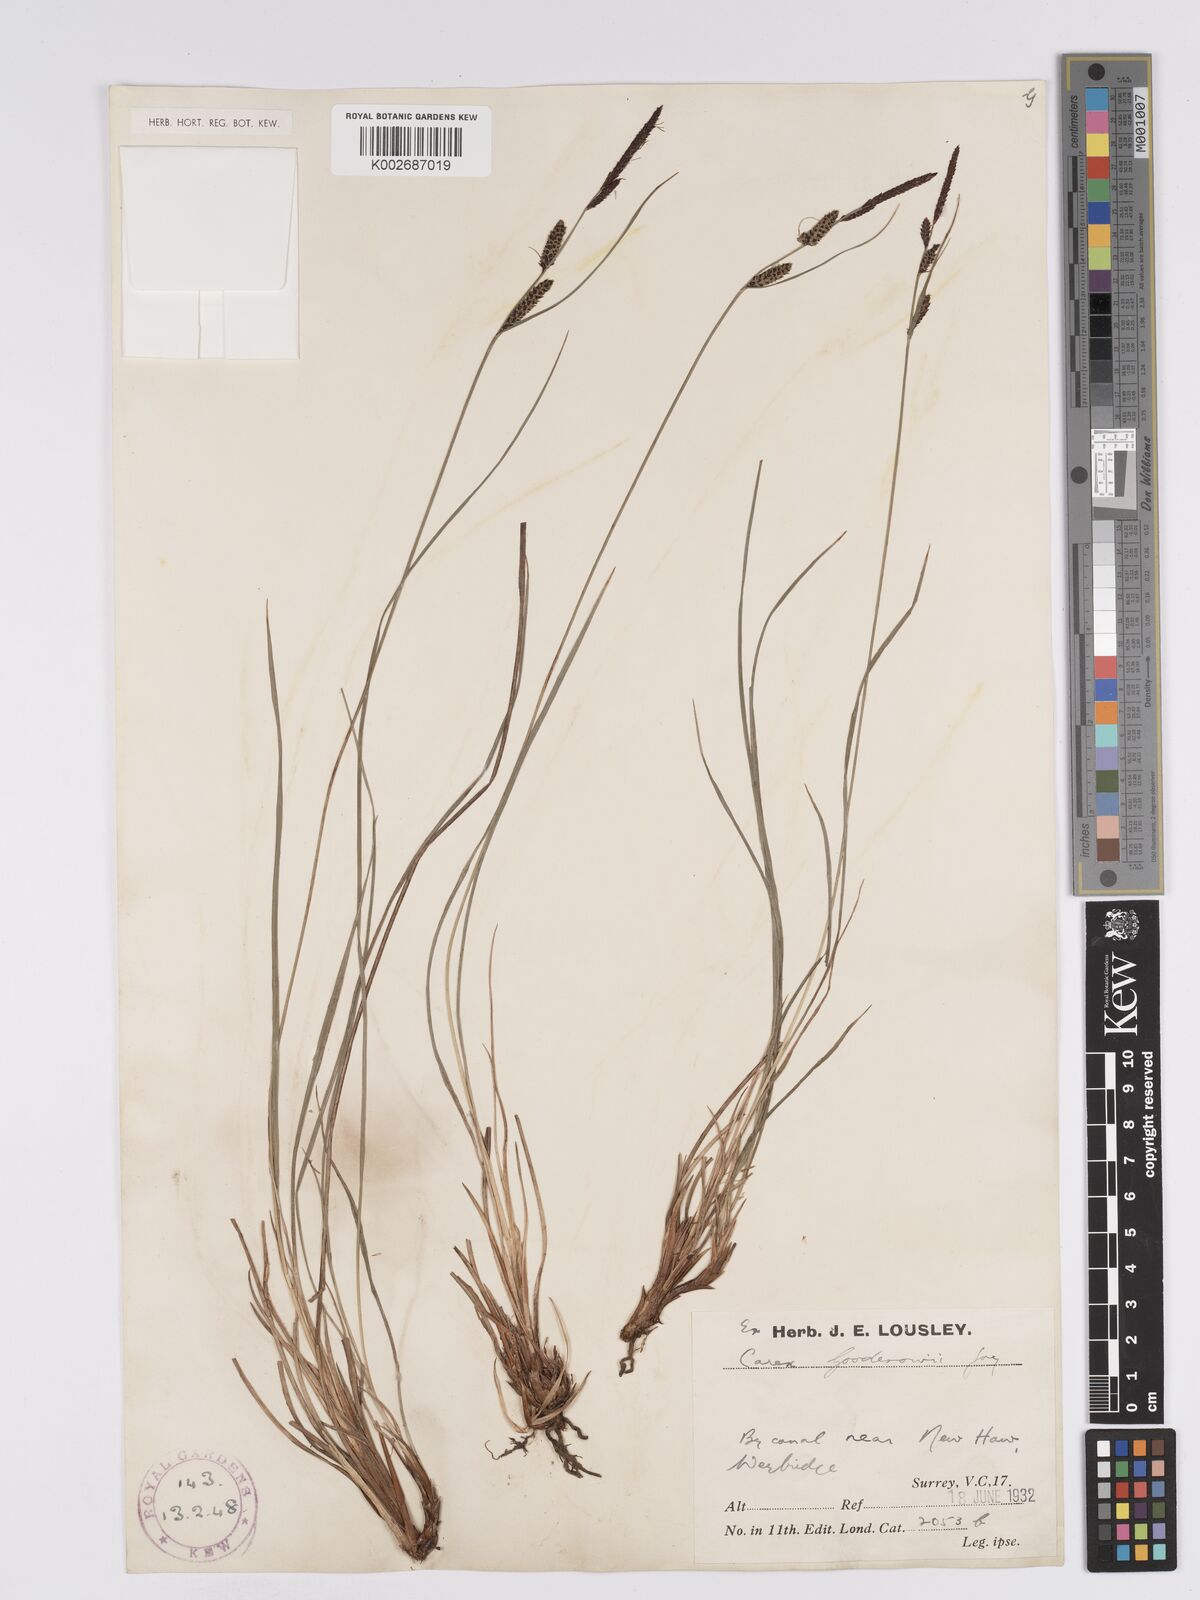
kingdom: Plantae
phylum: Tracheophyta
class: Liliopsida
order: Poales
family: Cyperaceae
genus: Carex
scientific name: Carex nigra
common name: Common sedge
